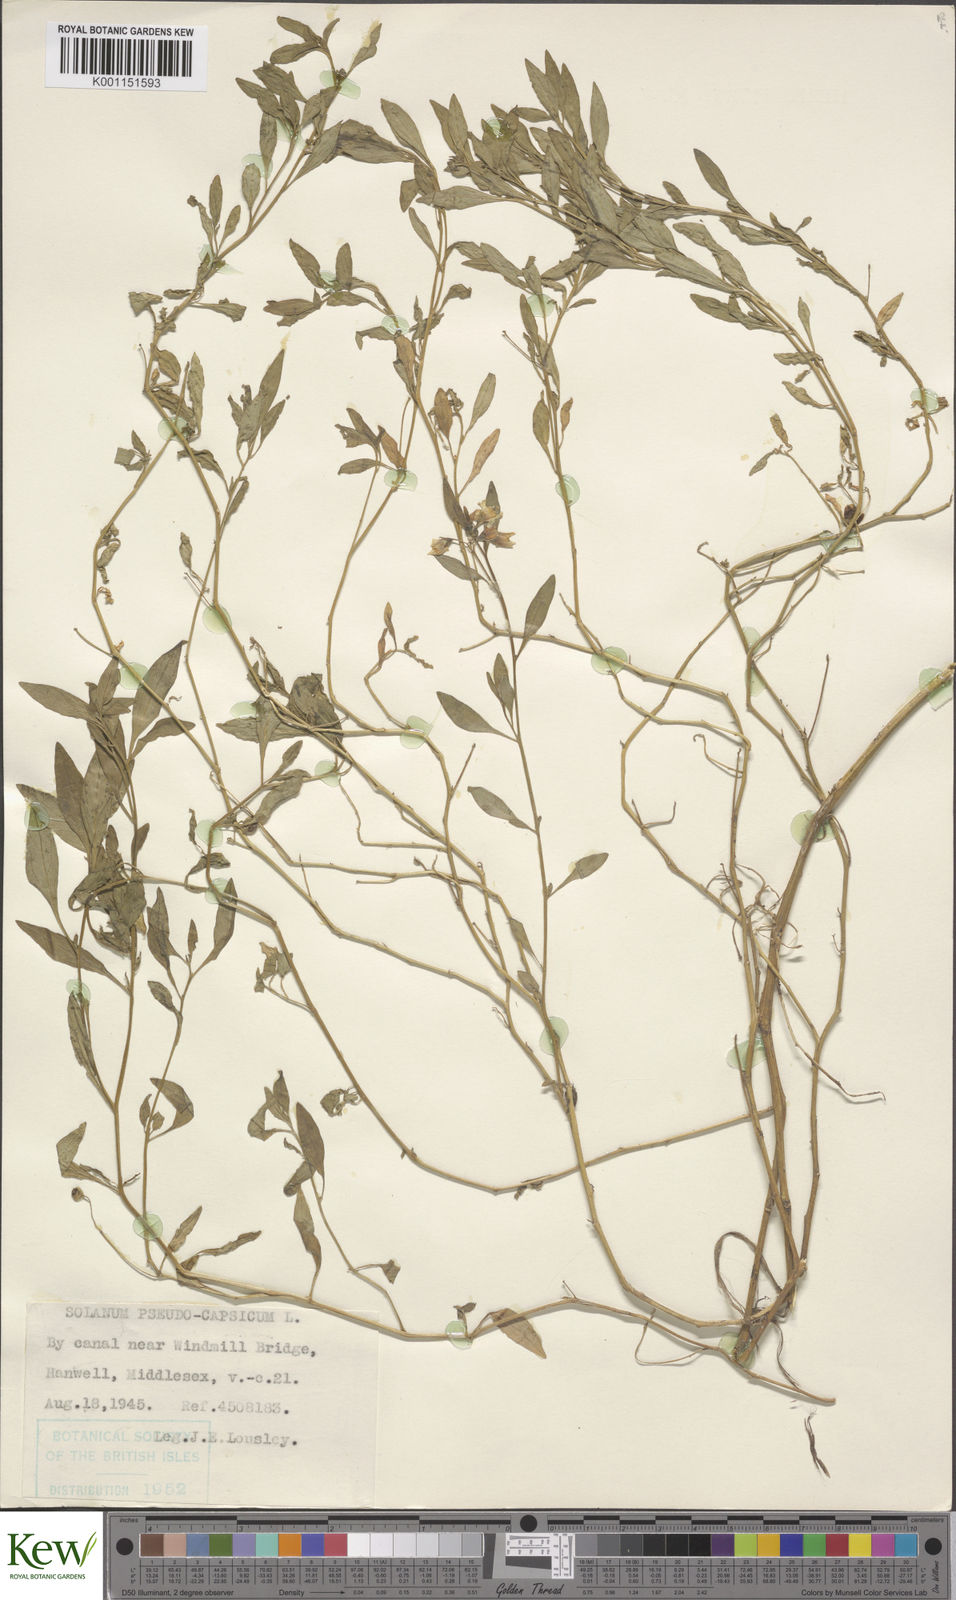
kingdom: Plantae
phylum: Tracheophyta
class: Magnoliopsida
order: Solanales
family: Solanaceae
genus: Solanum
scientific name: Solanum pygmaeum
